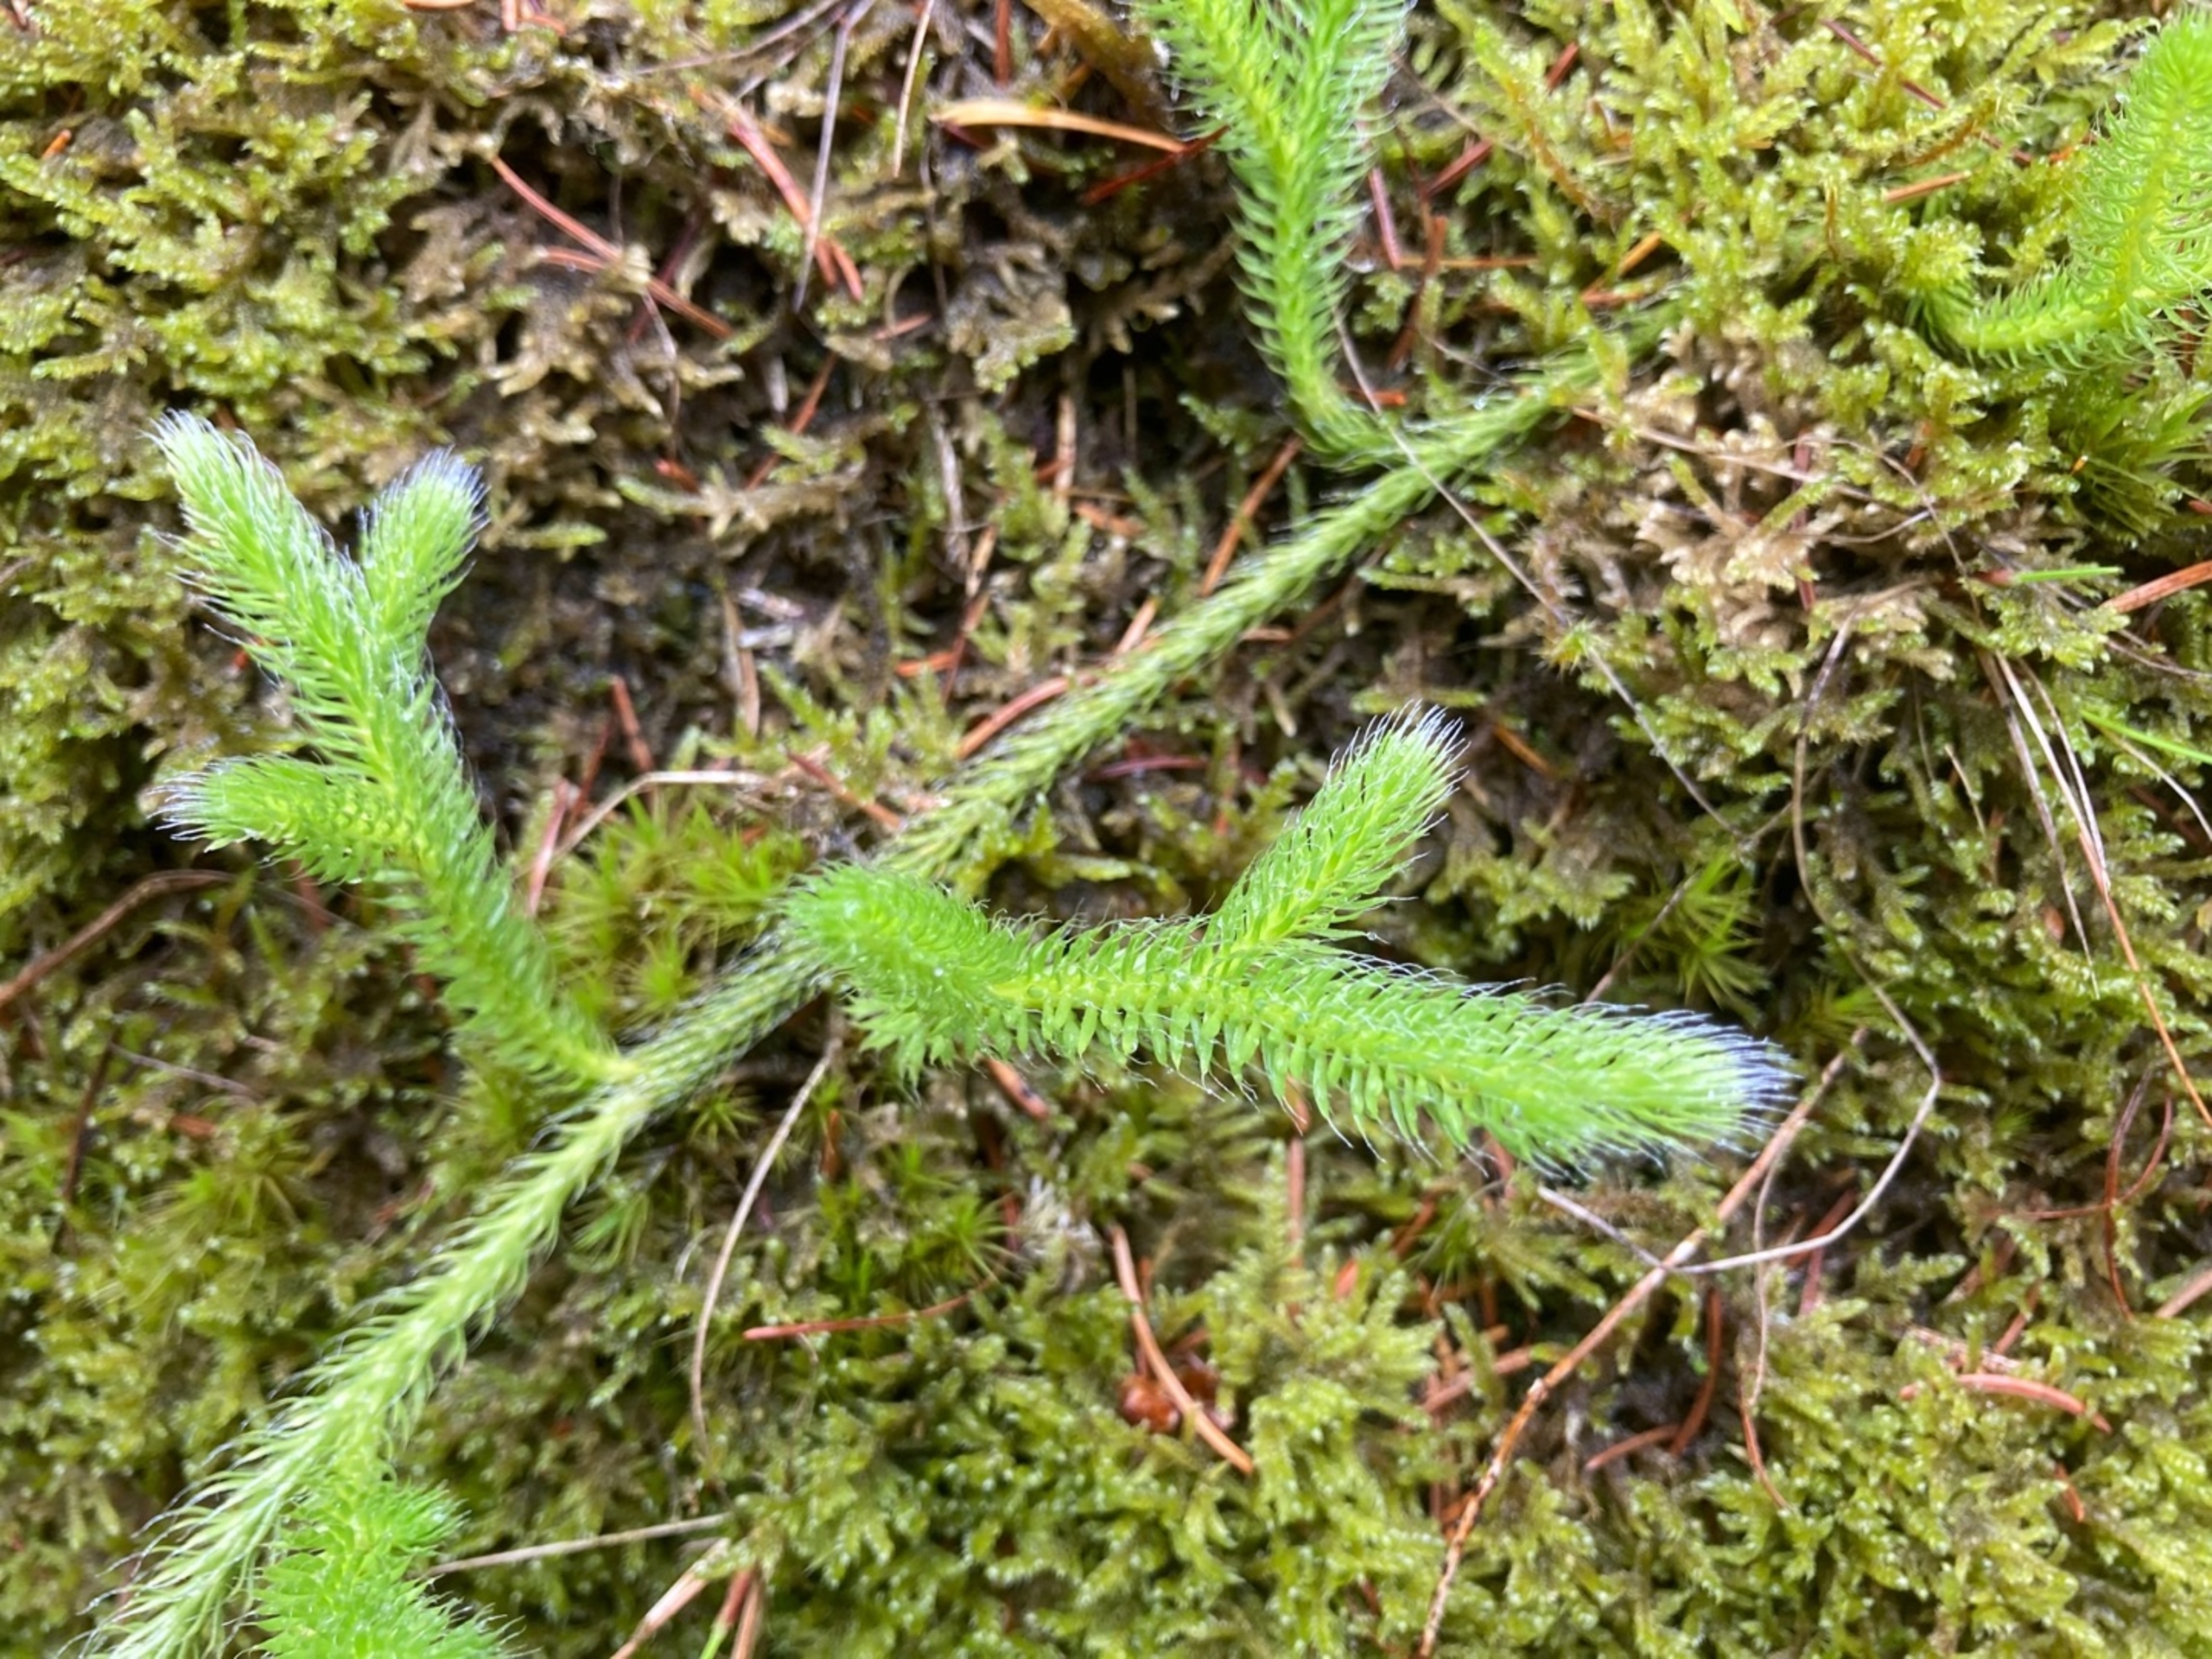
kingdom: Plantae
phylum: Tracheophyta
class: Lycopodiopsida
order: Lycopodiales
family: Lycopodiaceae
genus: Lycopodium
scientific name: Lycopodium clavatum
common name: Almindelig ulvefod
